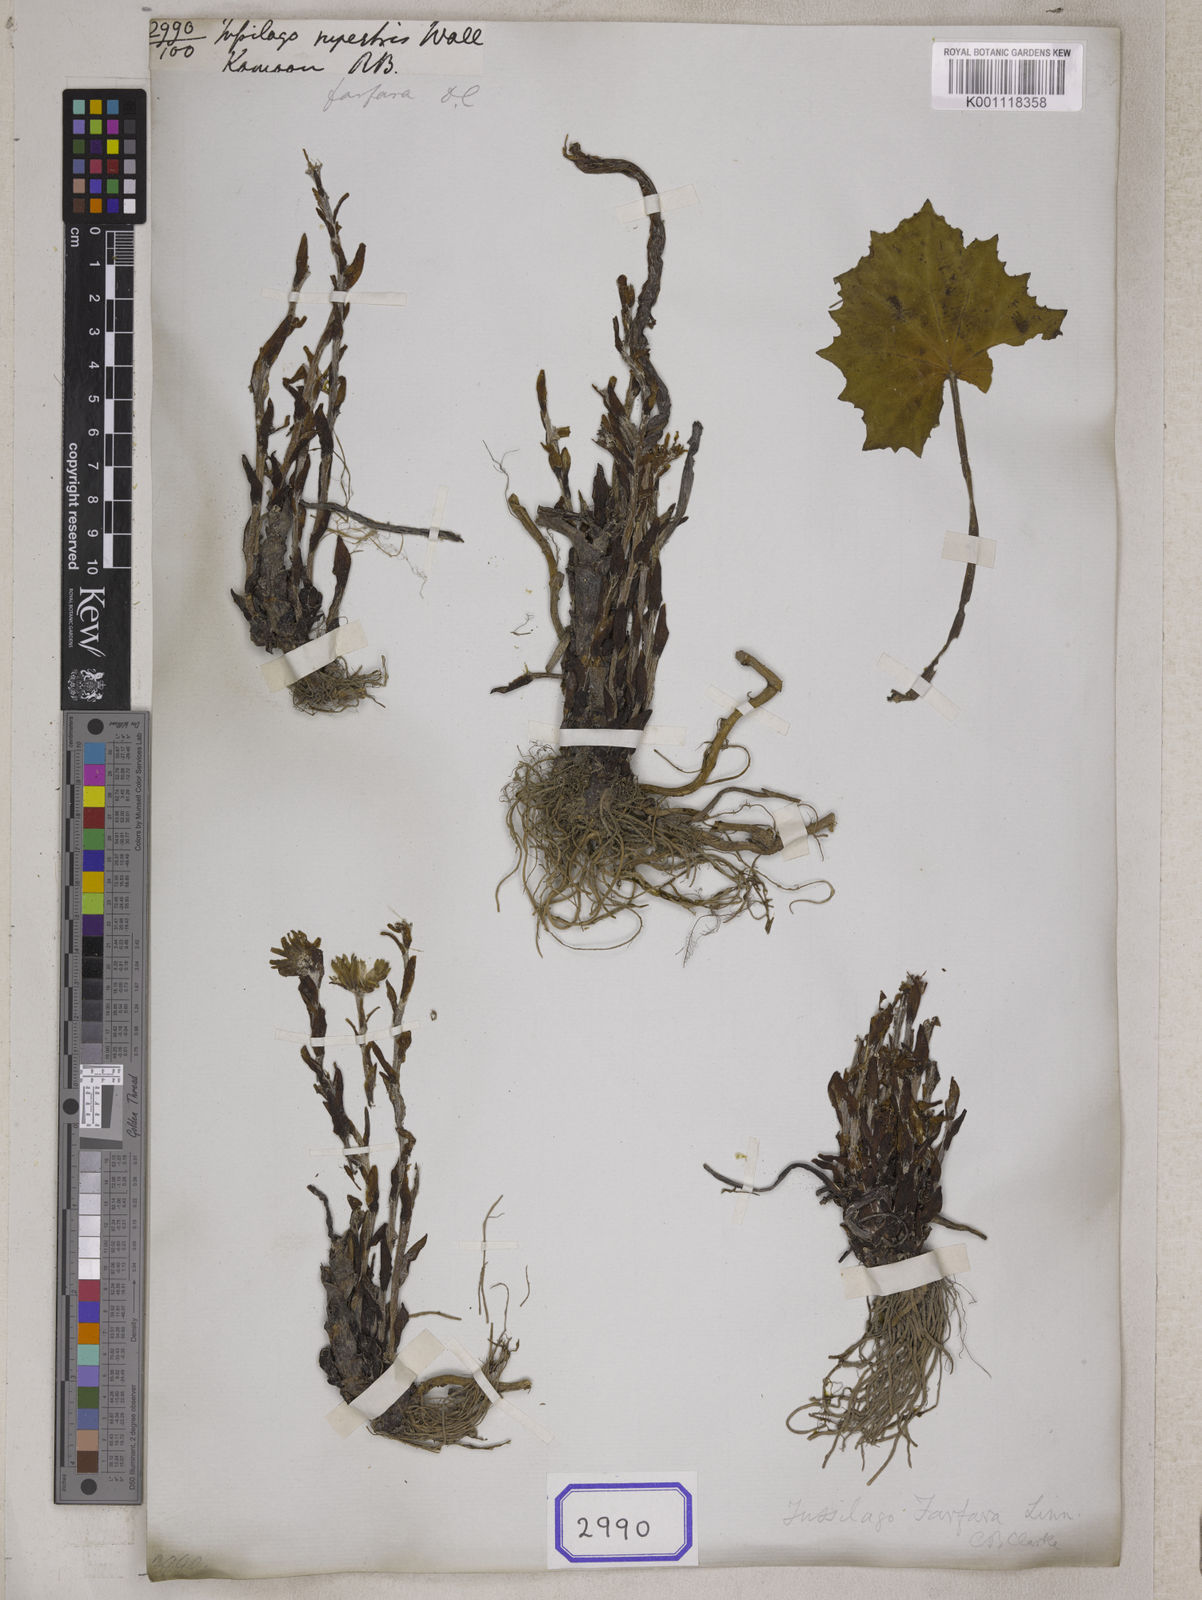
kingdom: Plantae
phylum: Tracheophyta
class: Magnoliopsida
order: Asterales
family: Asteraceae
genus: Tussilago
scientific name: Tussilago farfara
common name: Coltsfoot
